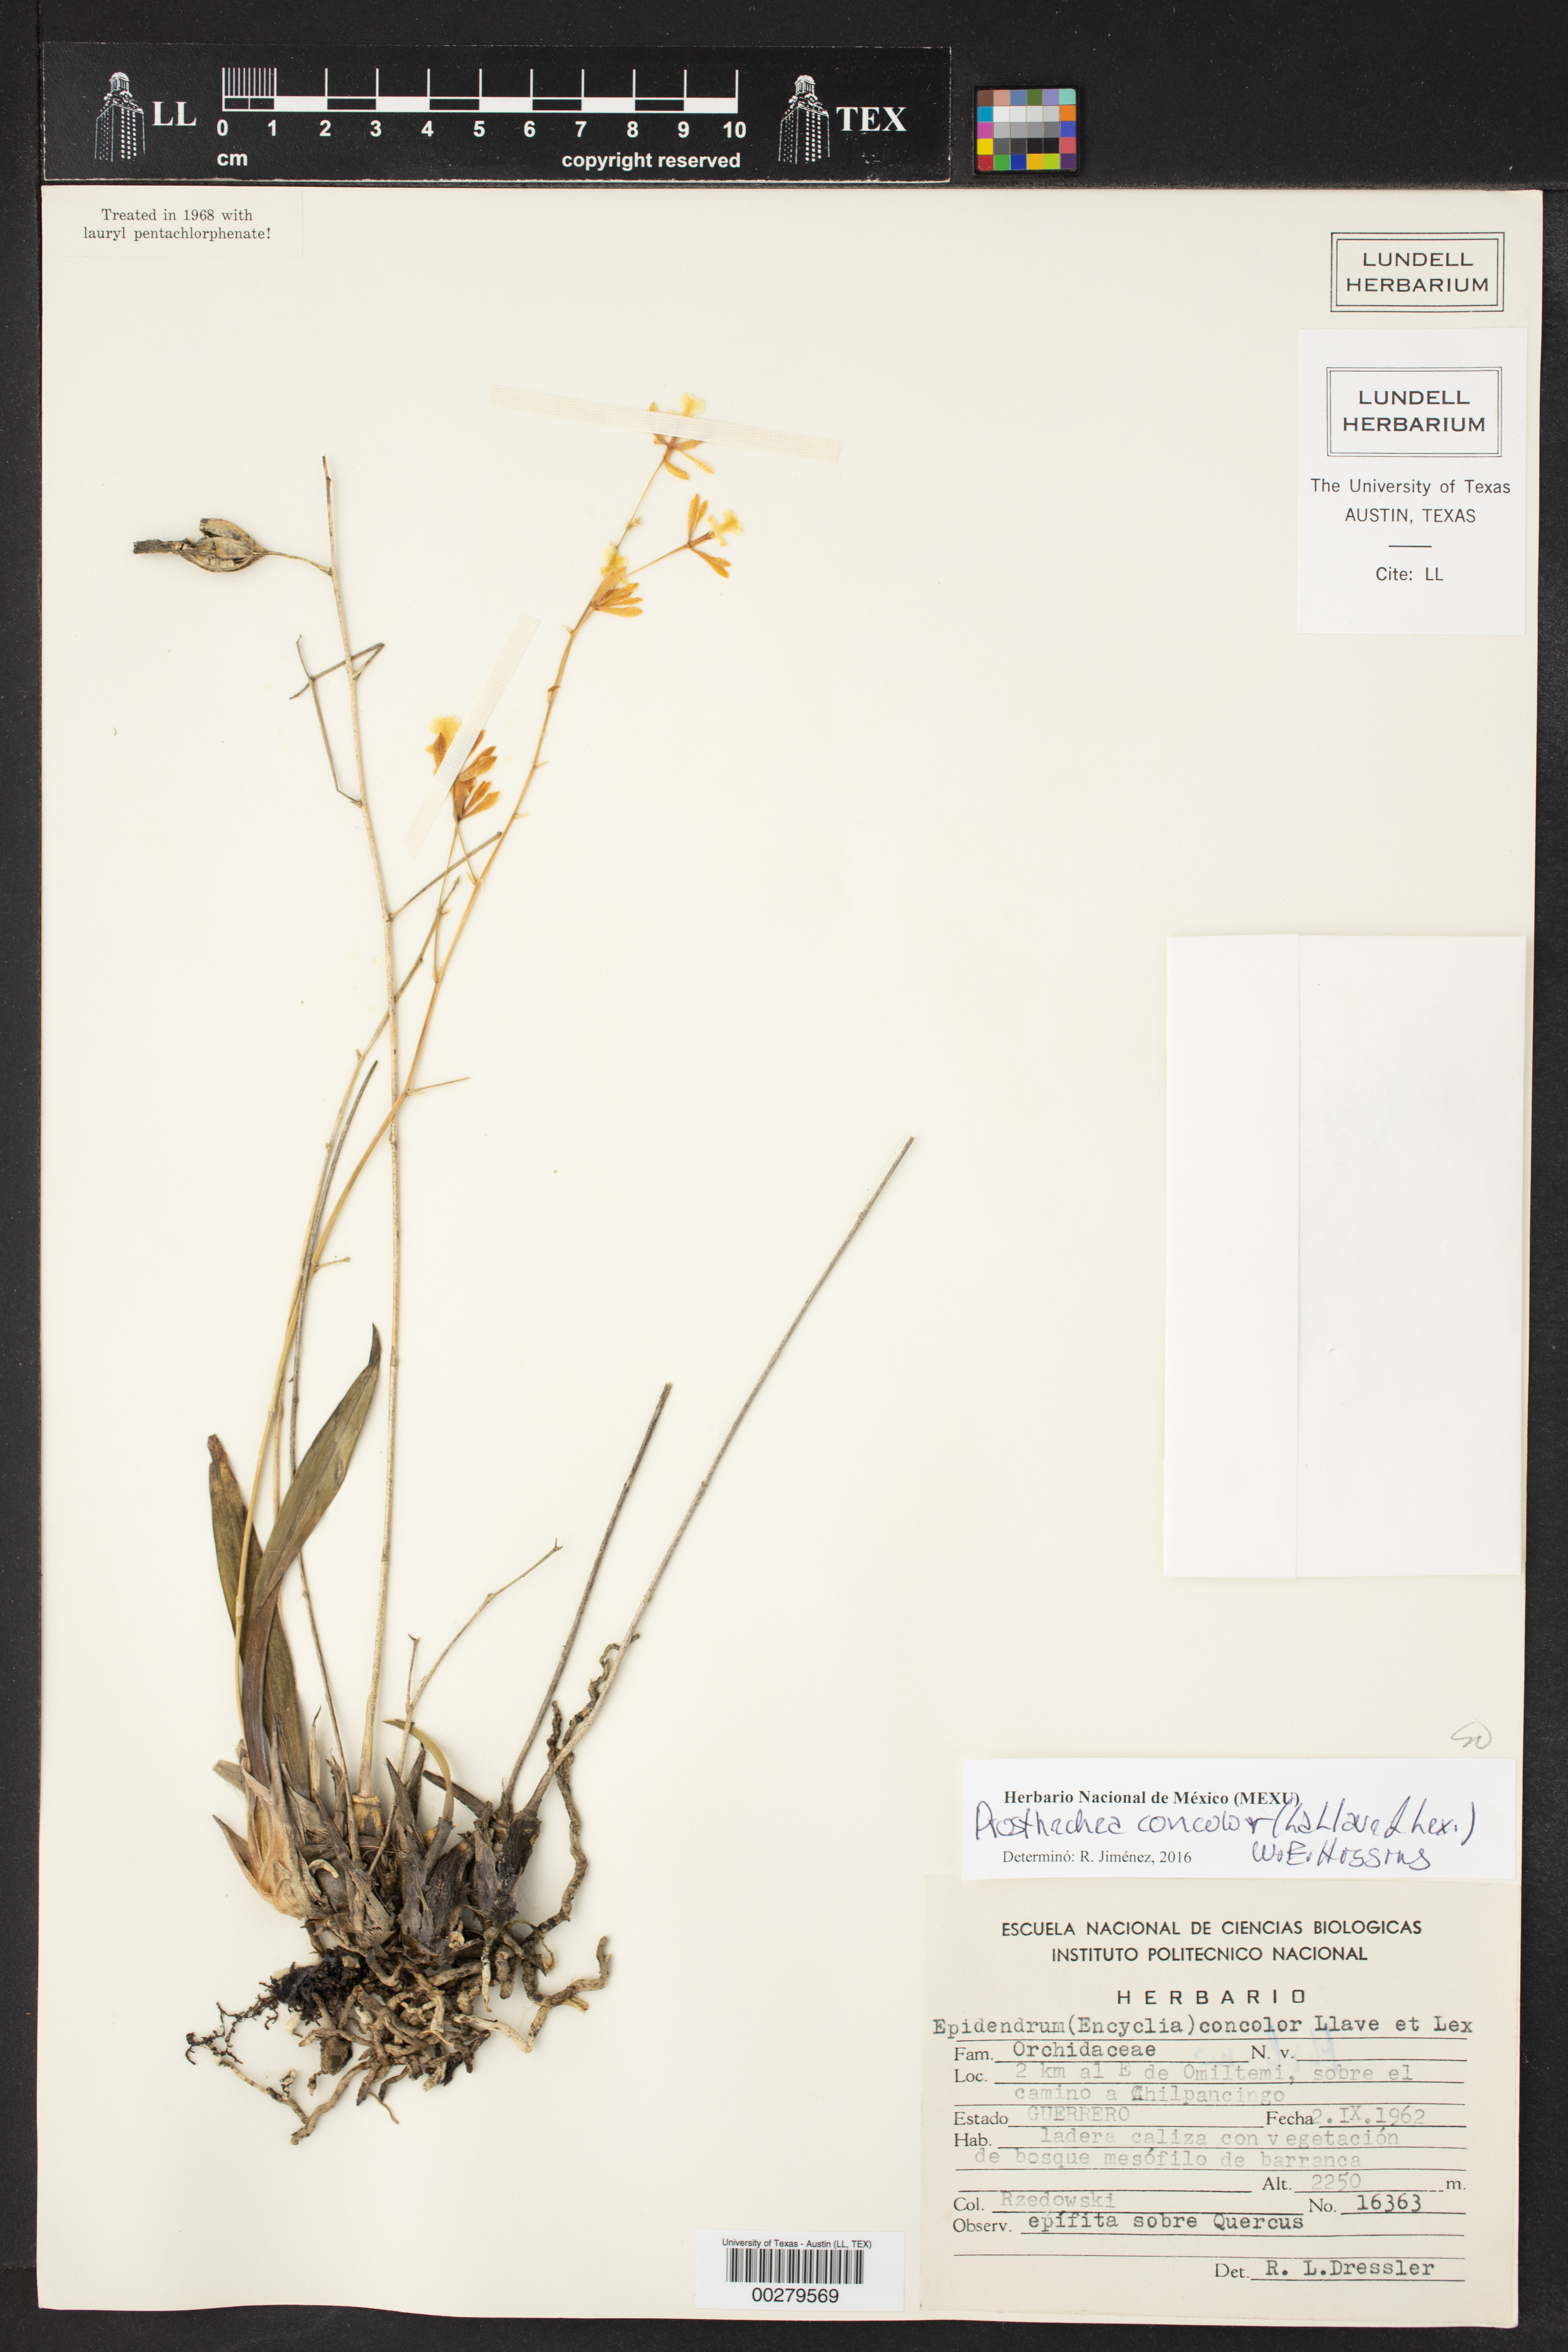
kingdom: Plantae
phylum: Tracheophyta
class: Liliopsida
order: Asparagales
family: Orchidaceae
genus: Prosthechea
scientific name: Prosthechea concolor
